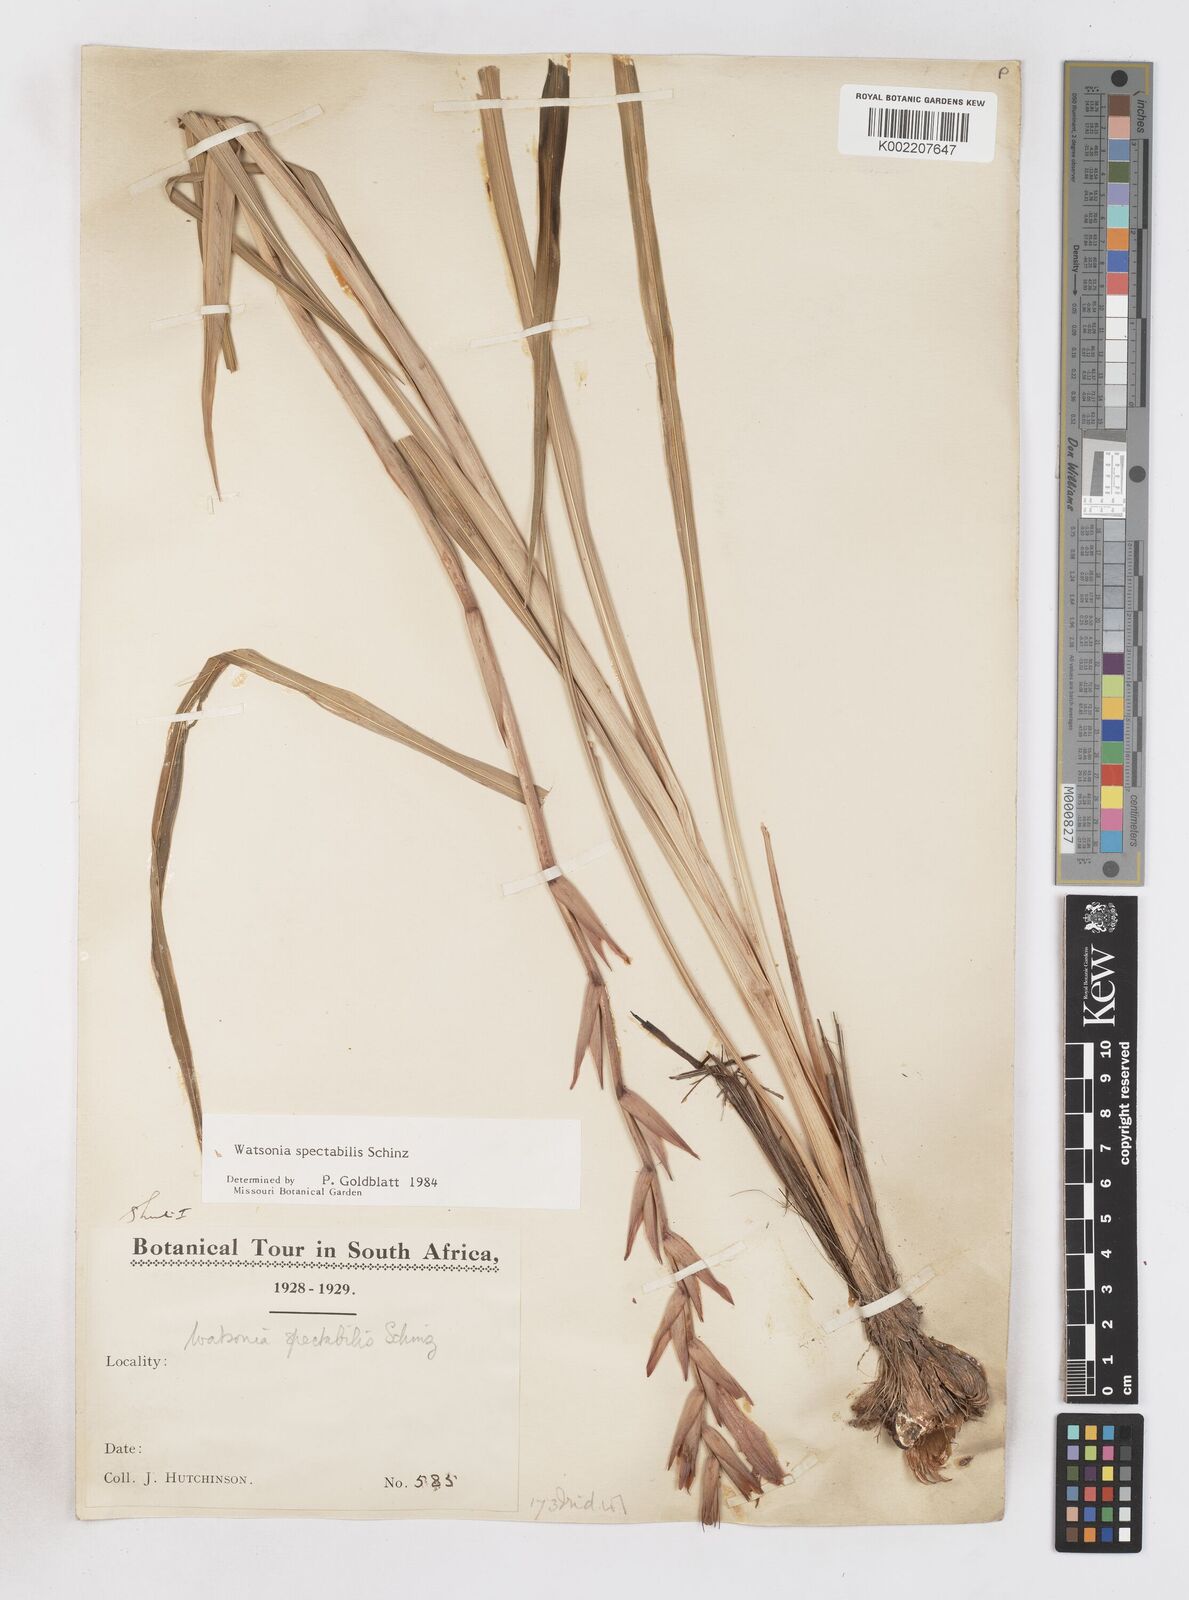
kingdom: Plantae
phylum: Tracheophyta
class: Liliopsida
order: Asparagales
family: Iridaceae
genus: Watsonia
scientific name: Watsonia spectabilis
